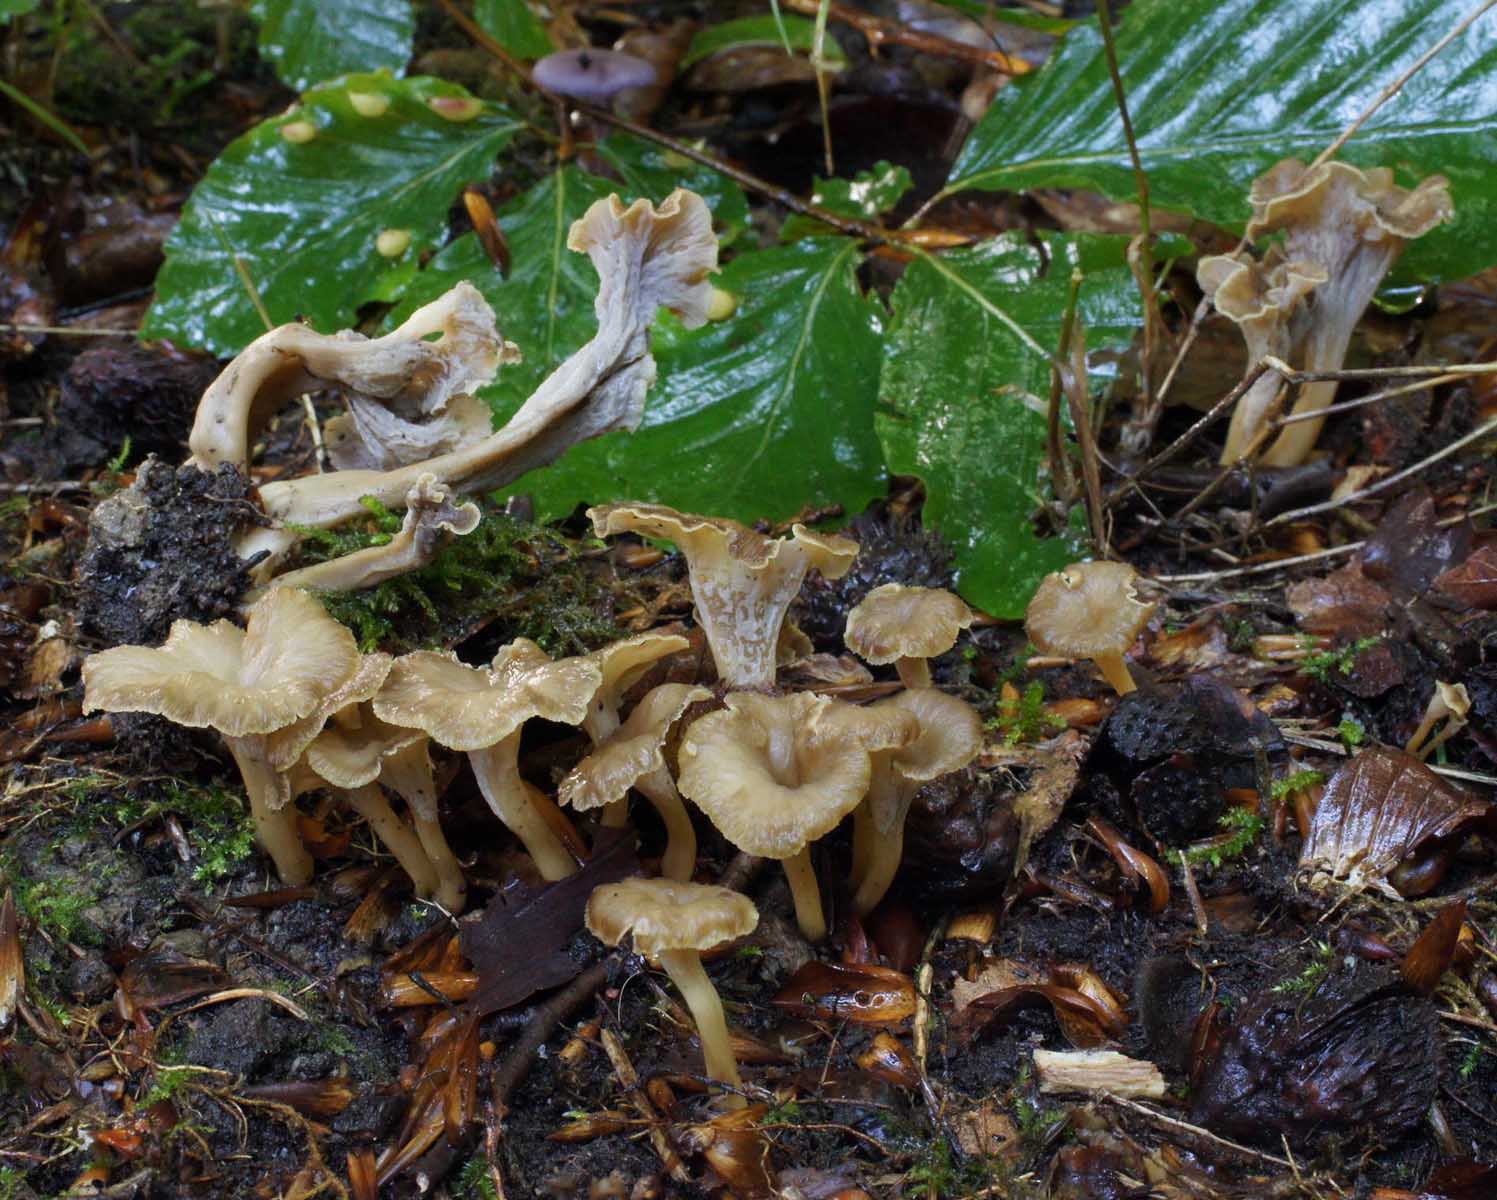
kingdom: Fungi
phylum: Basidiomycota
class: Agaricomycetes
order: Cantharellales
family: Hydnaceae
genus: Craterellus
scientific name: Craterellus undulatus
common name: liden kantarel
